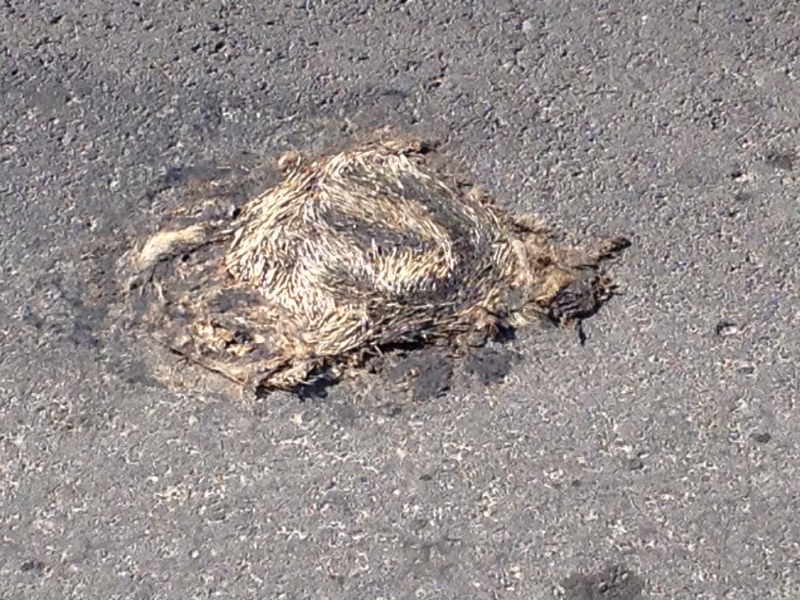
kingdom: Animalia
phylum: Chordata
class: Mammalia
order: Erinaceomorpha
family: Erinaceidae
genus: Erinaceus
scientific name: Erinaceus
